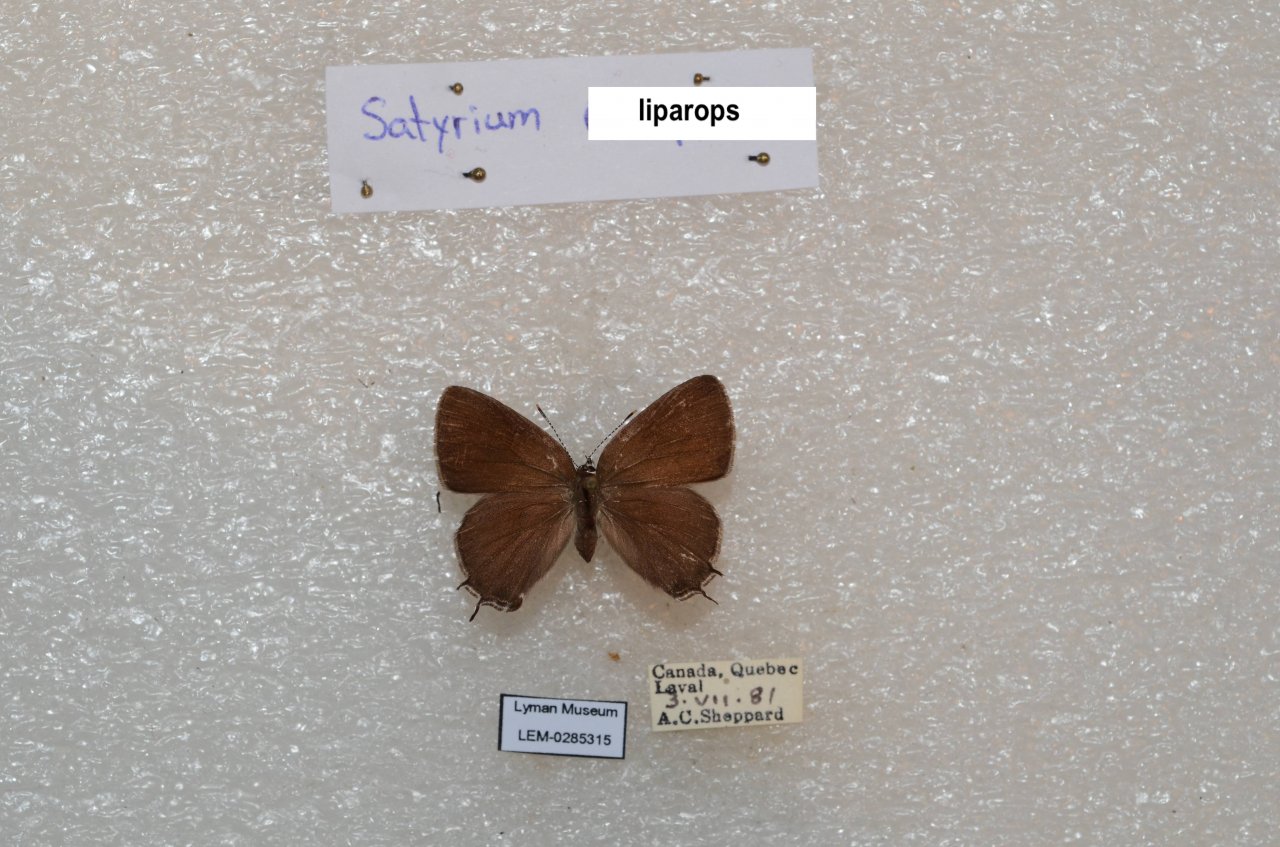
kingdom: Animalia
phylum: Arthropoda
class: Insecta
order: Lepidoptera
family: Lycaenidae
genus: Satyrium
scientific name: Satyrium liparops
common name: Striped Hairstreak
